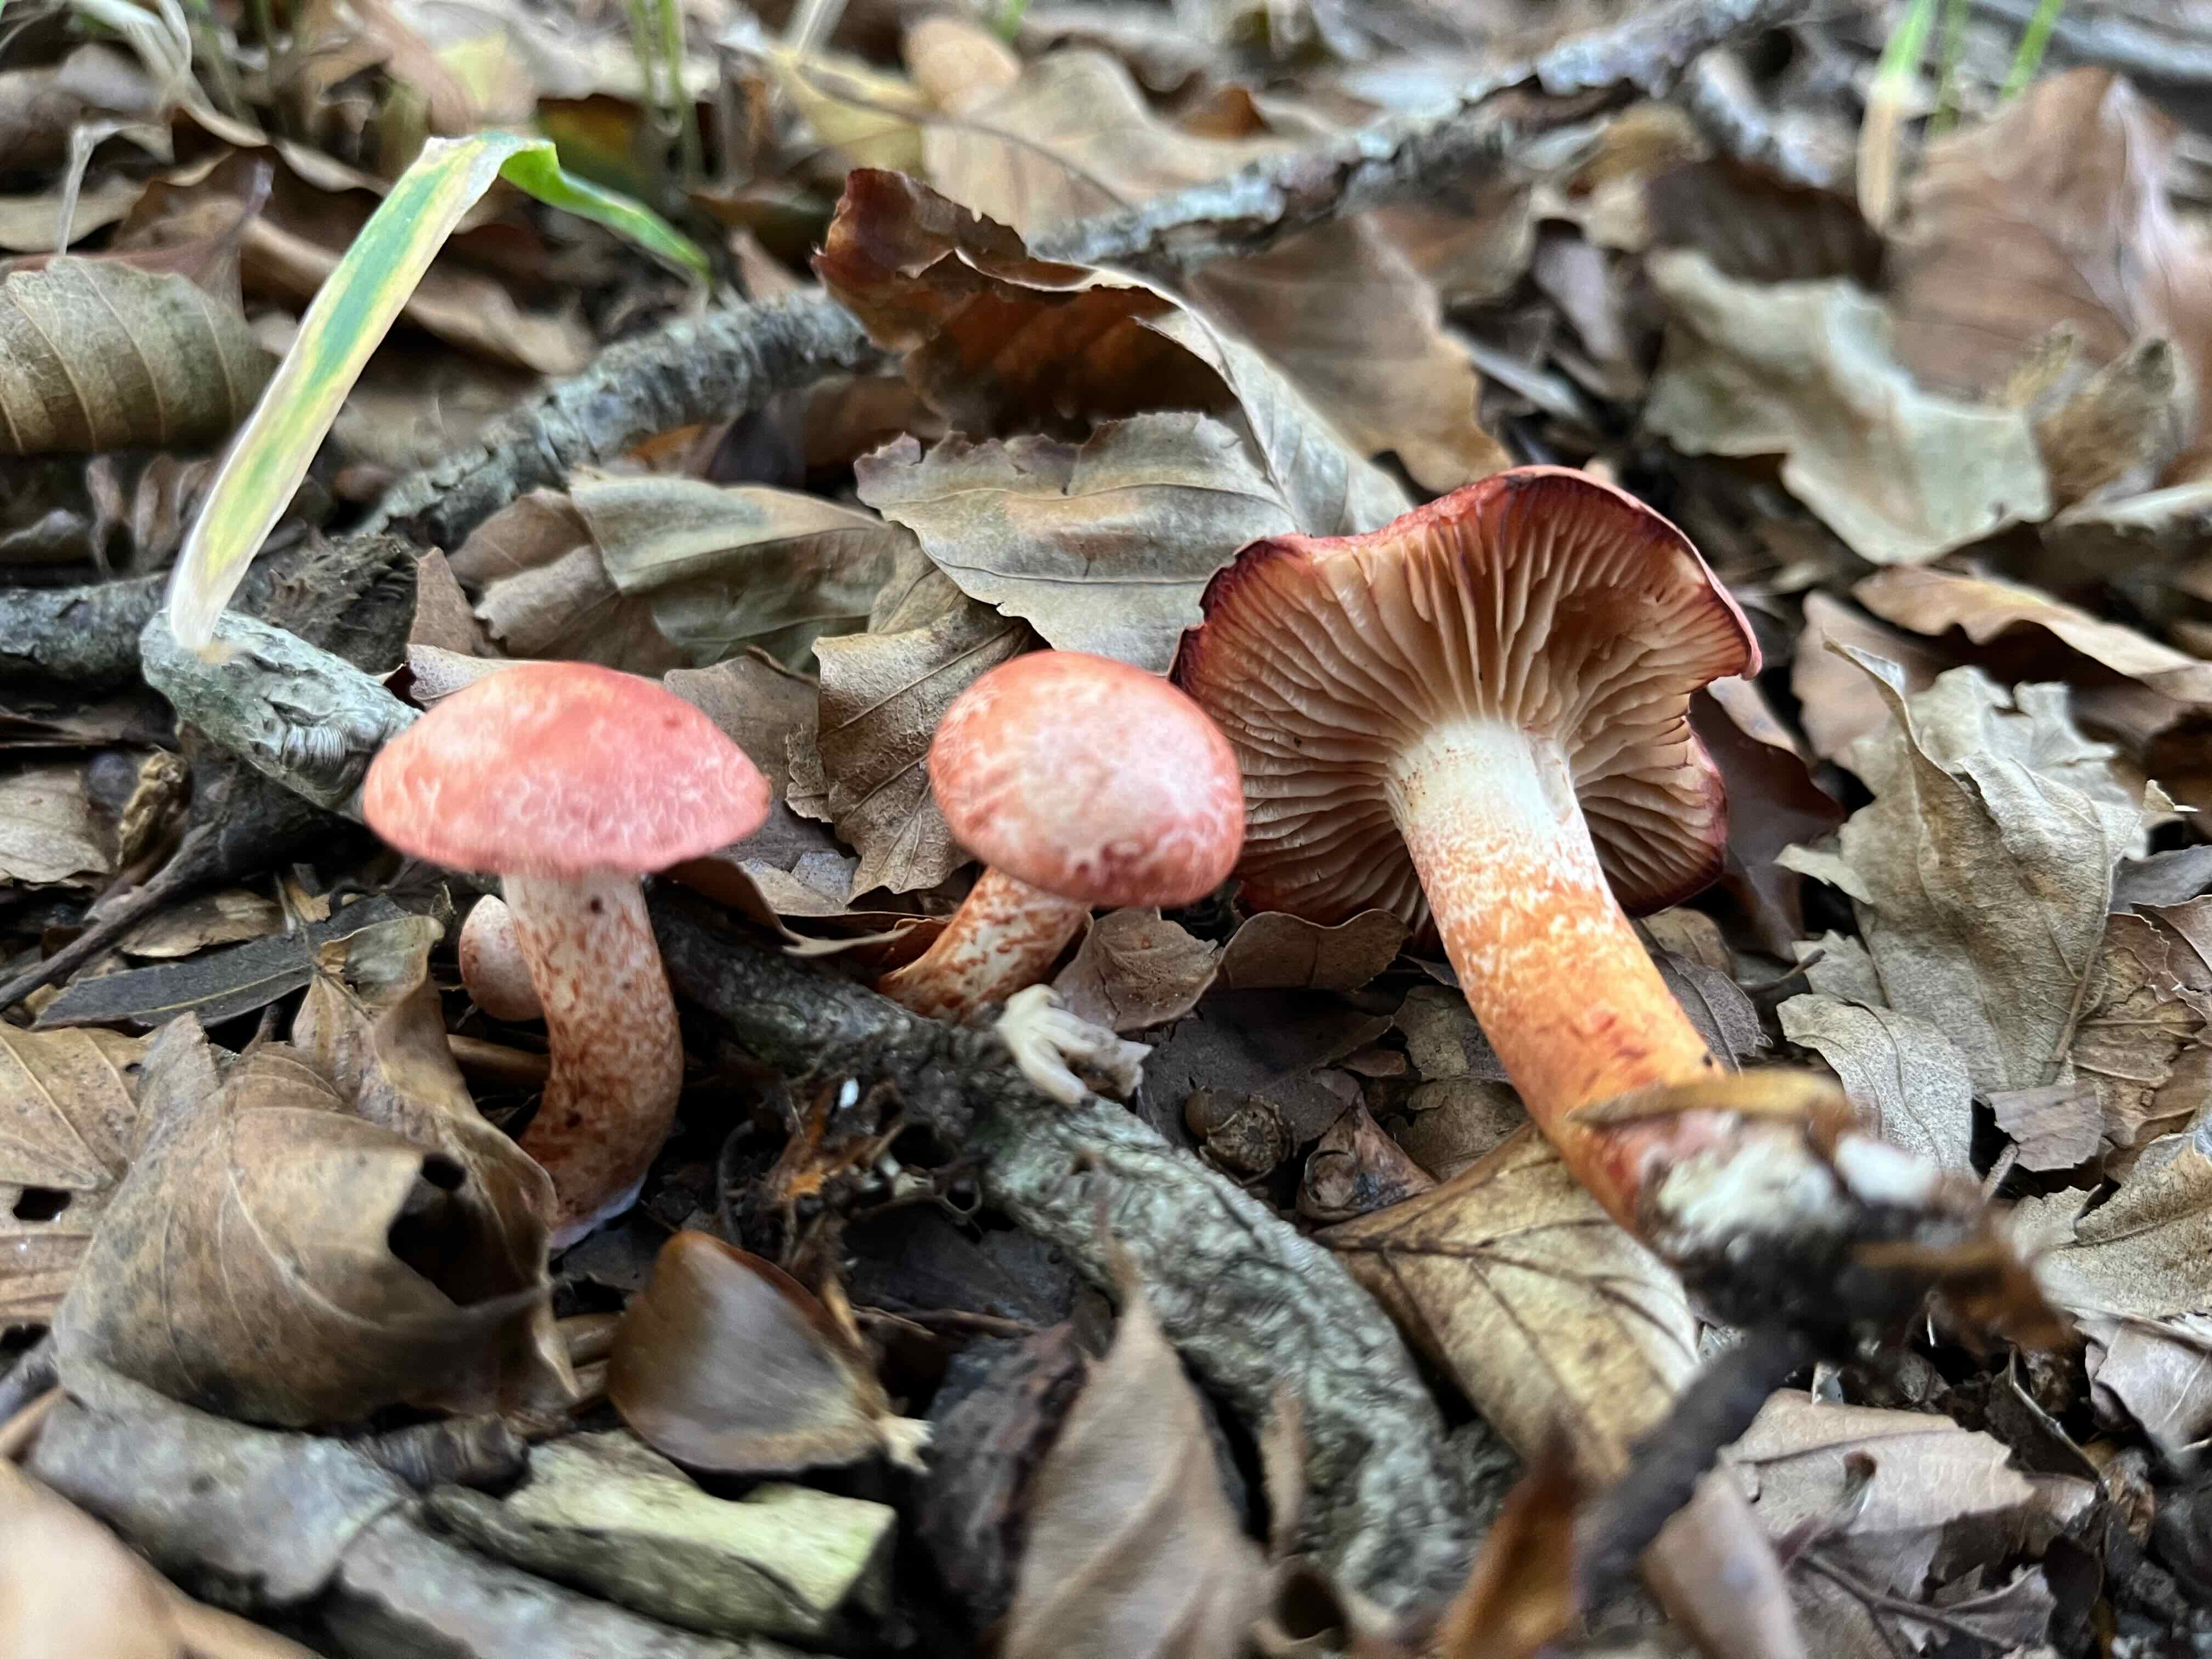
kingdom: Fungi
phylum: Basidiomycota
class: Agaricomycetes
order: Agaricales
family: Cortinariaceae
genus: Cortinarius
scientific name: Cortinarius bolaris
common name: cinnoberskællet slørhat
